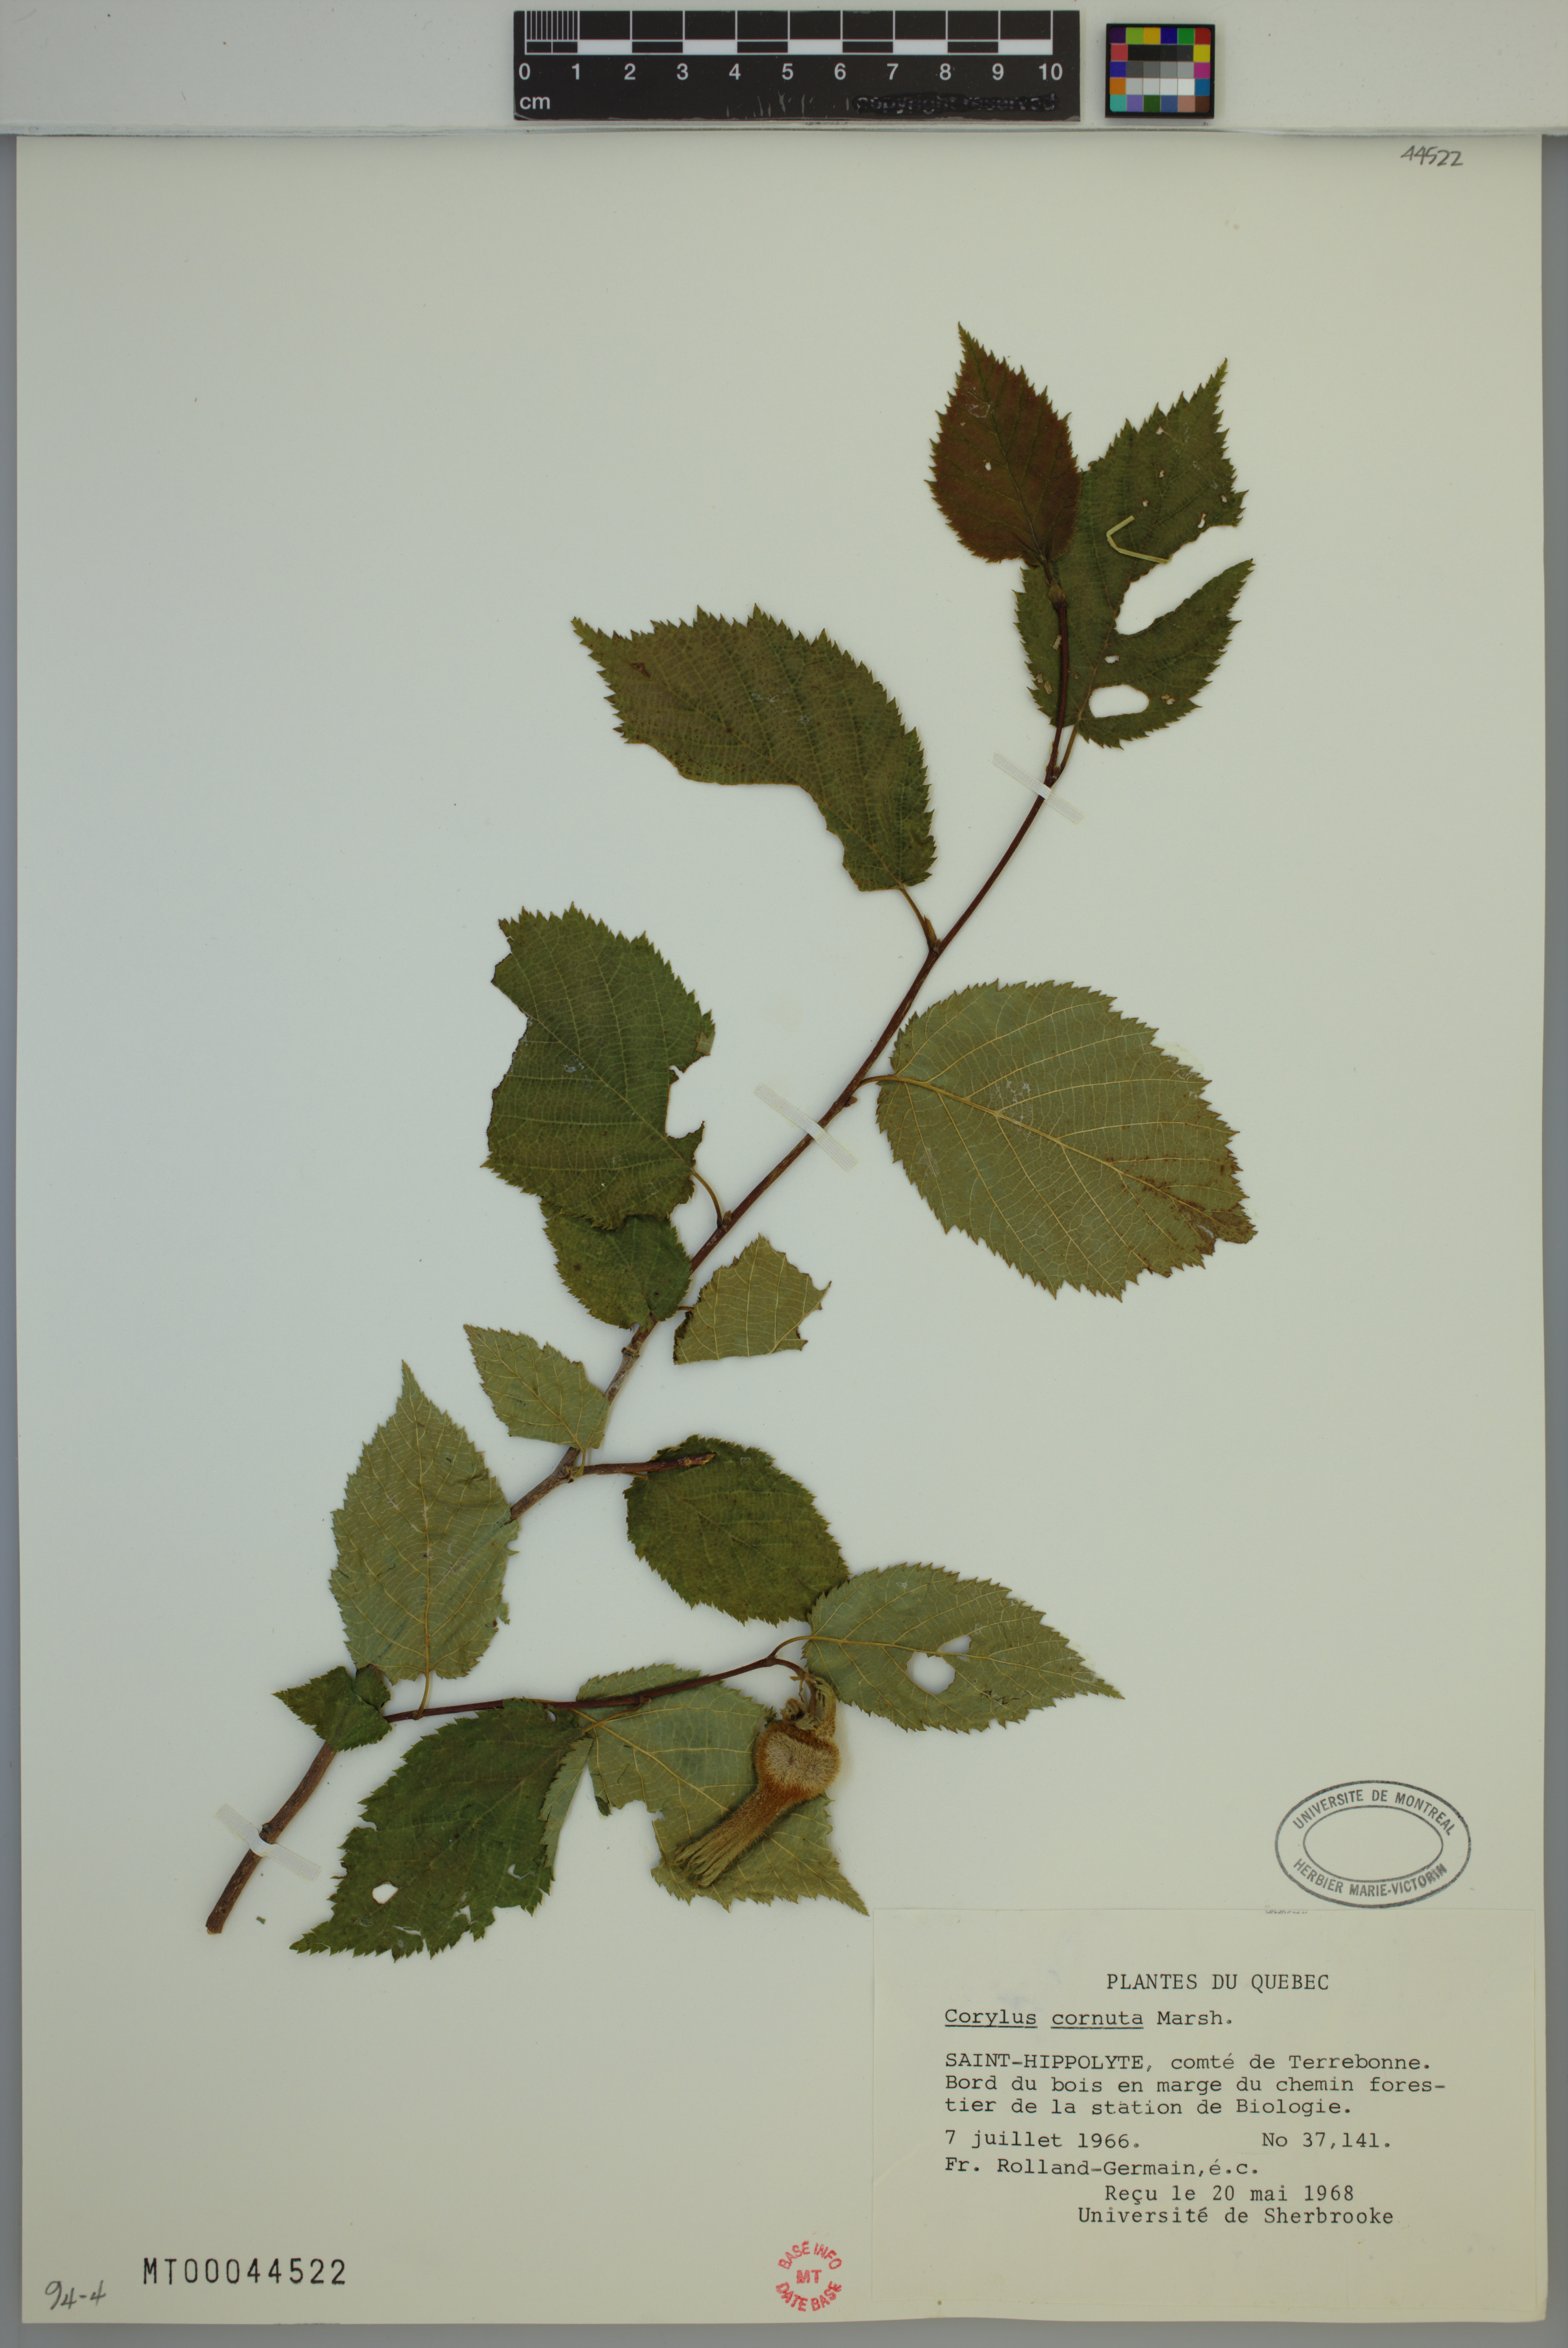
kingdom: Plantae
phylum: Tracheophyta
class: Magnoliopsida
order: Fagales
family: Betulaceae
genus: Corylus
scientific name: Corylus cornuta
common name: Beaked hazel
